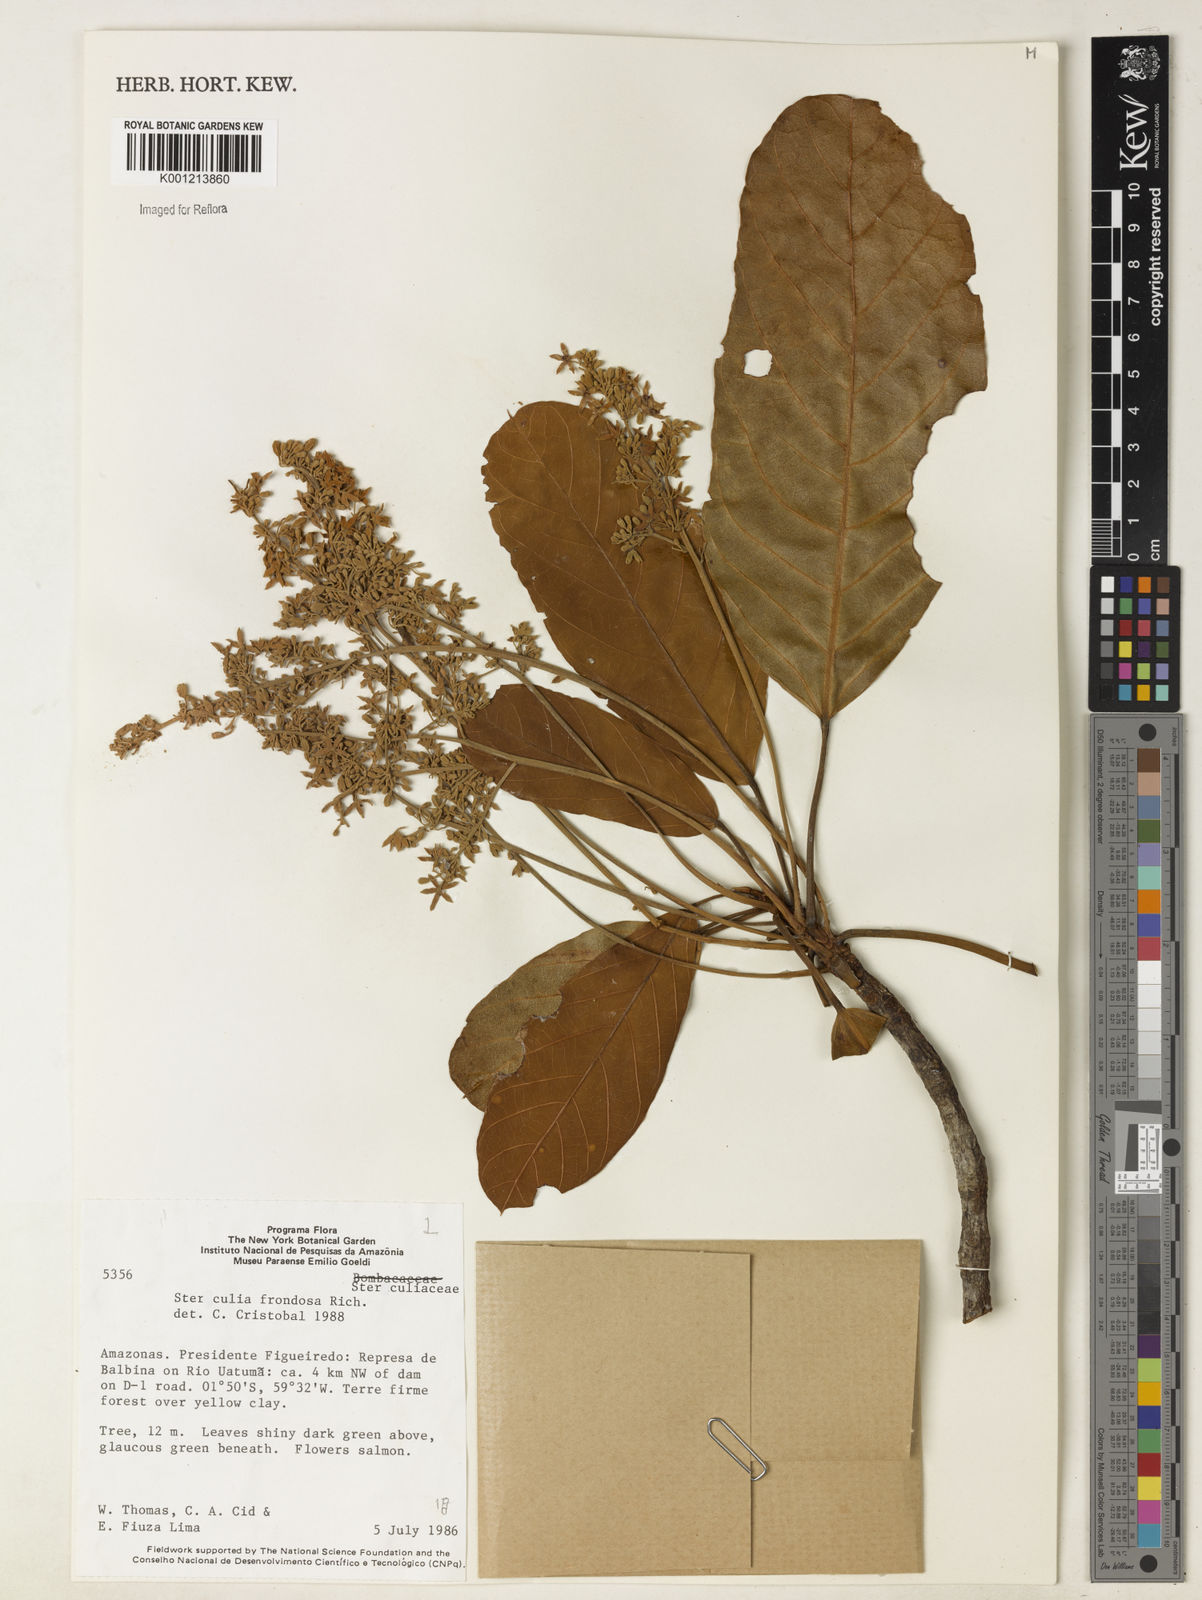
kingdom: Plantae
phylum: Tracheophyta
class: Magnoliopsida
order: Malvales
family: Malvaceae
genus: Sterculia
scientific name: Sterculia frondosa
